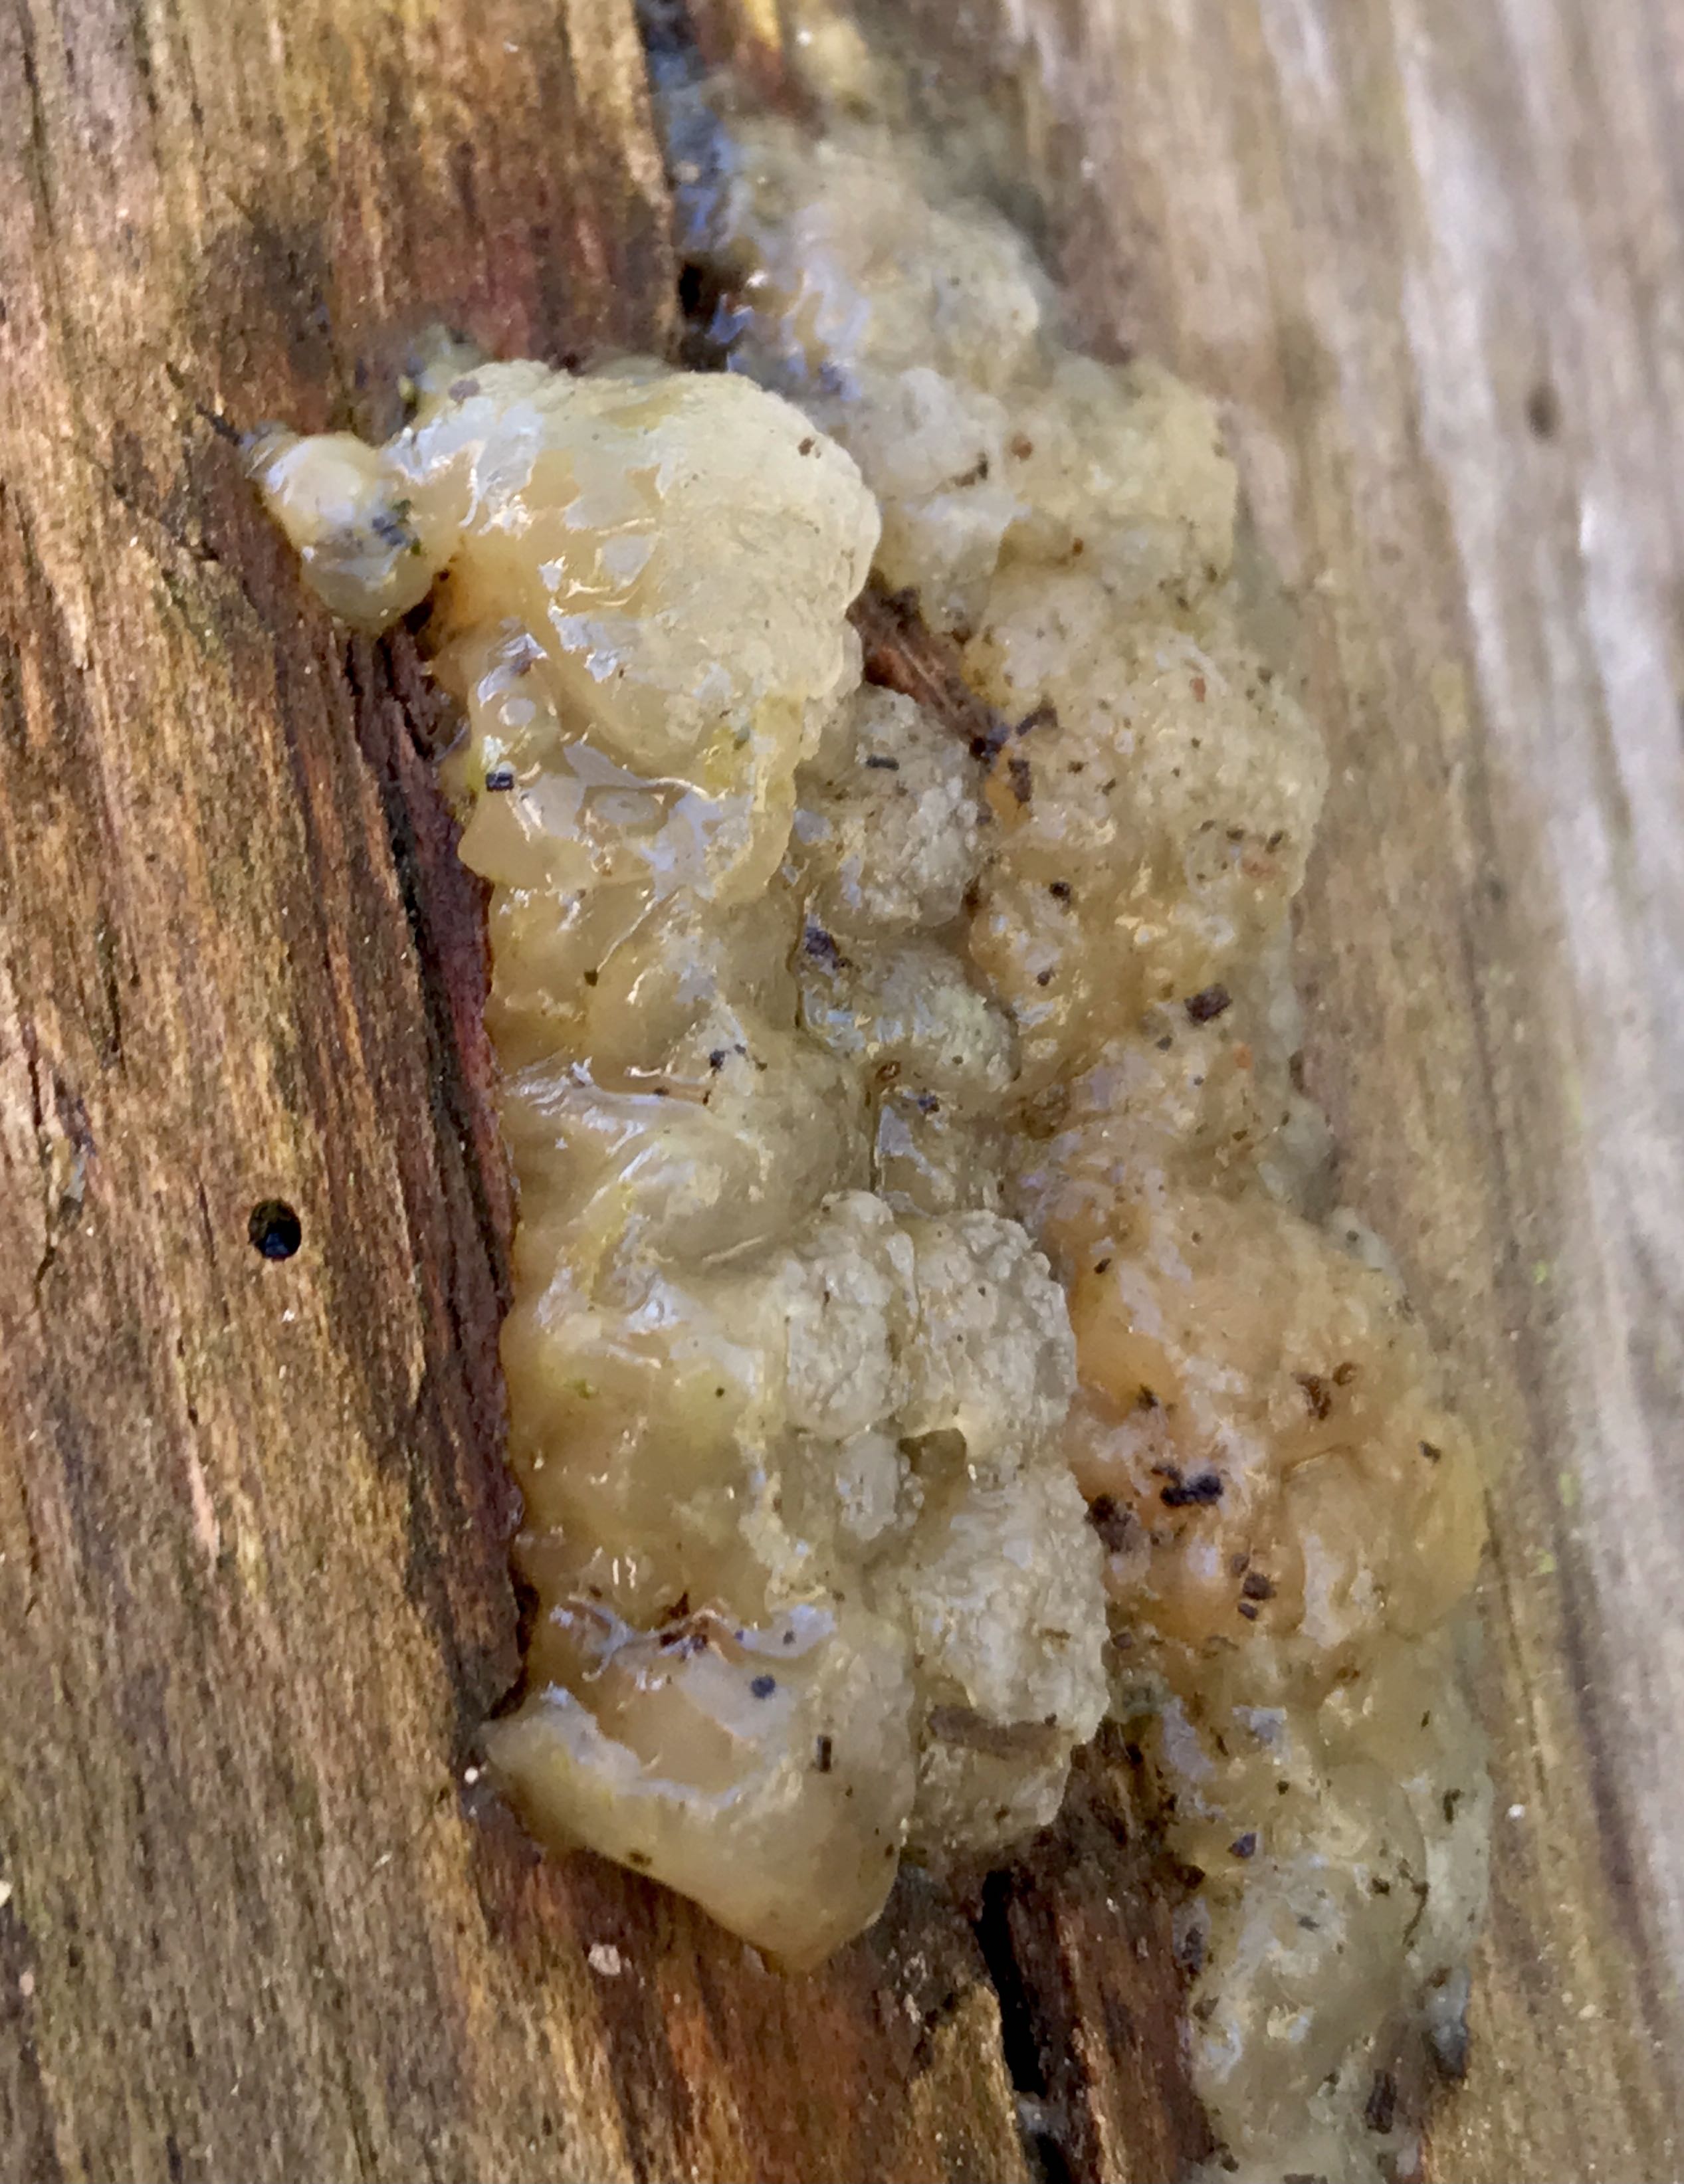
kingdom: Fungi
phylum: Basidiomycota
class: Agaricomycetes
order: Auriculariales
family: Hyaloriaceae
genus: Myxarium
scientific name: Myxarium nucleatum
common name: klar bævretop
